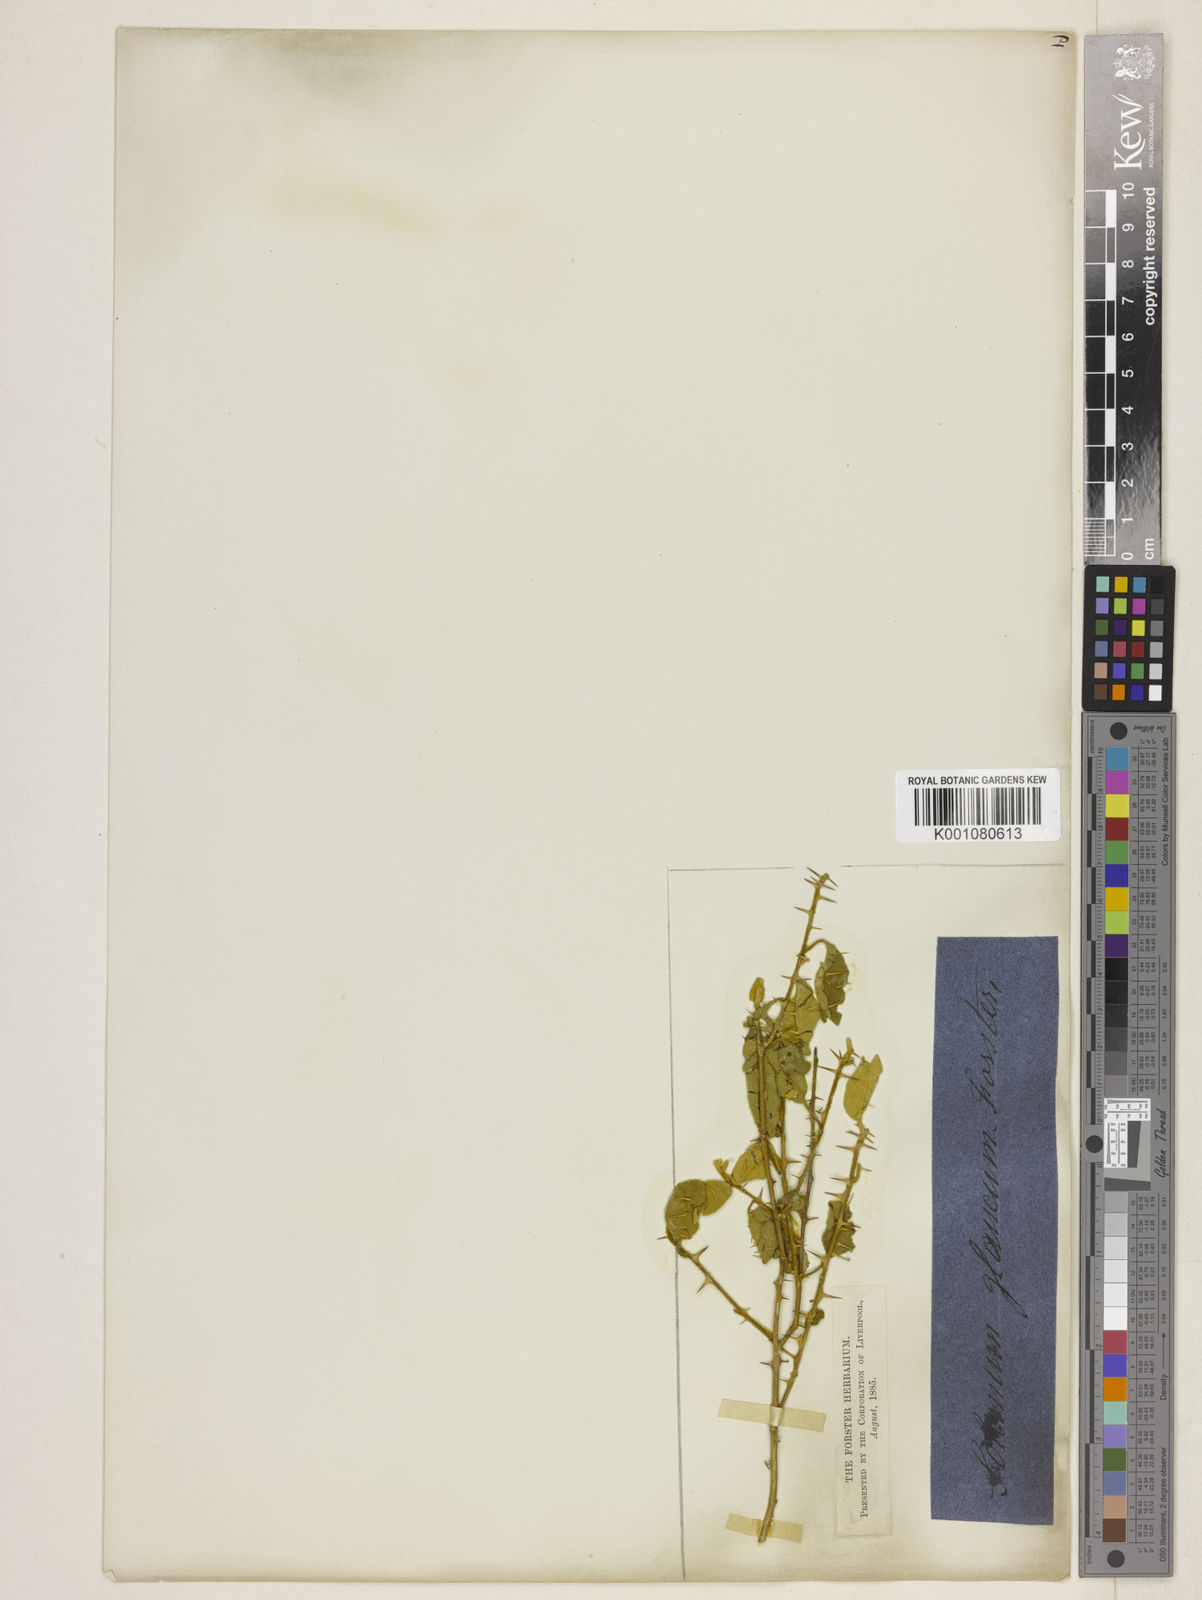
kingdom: Plantae
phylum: Tracheophyta
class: Magnoliopsida
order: Solanales
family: Solanaceae
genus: Solanum
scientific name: Solanum glaucophyllum
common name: Waxyleaf nightshade
